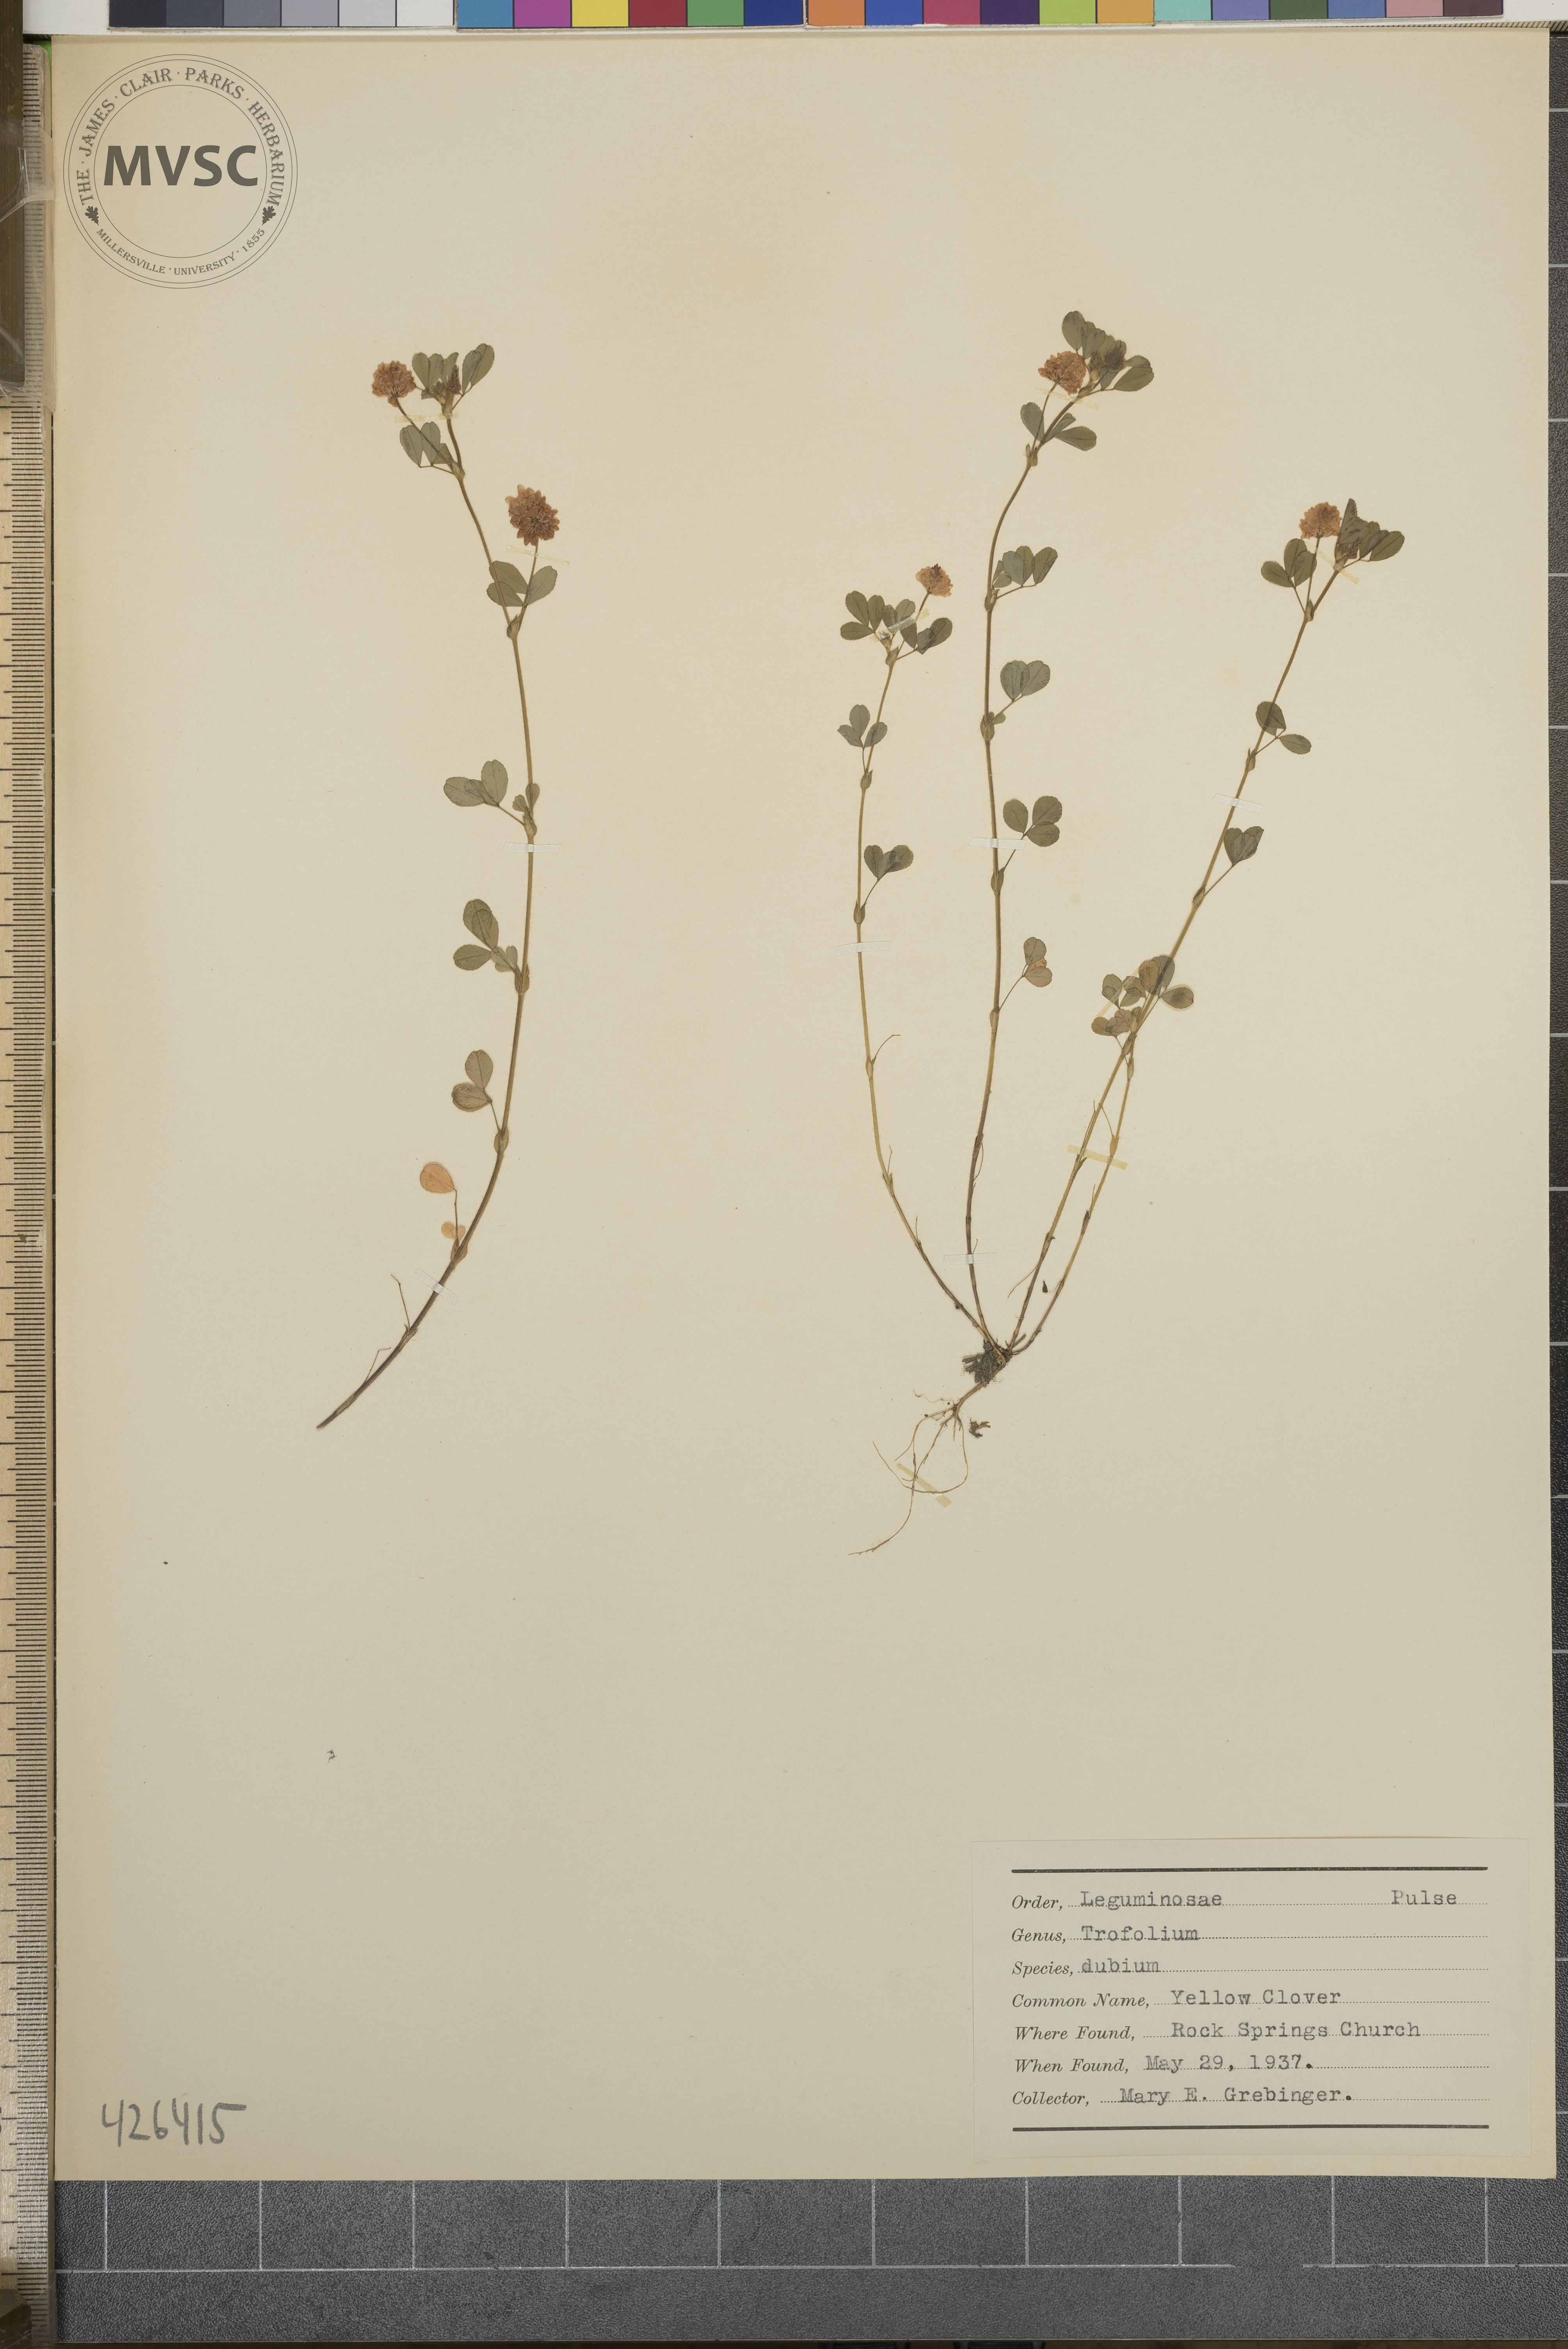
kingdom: Plantae
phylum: Tracheophyta
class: Magnoliopsida
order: Fabales
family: Fabaceae
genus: Trifolium
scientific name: Trifolium dubium
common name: Yellow clover
